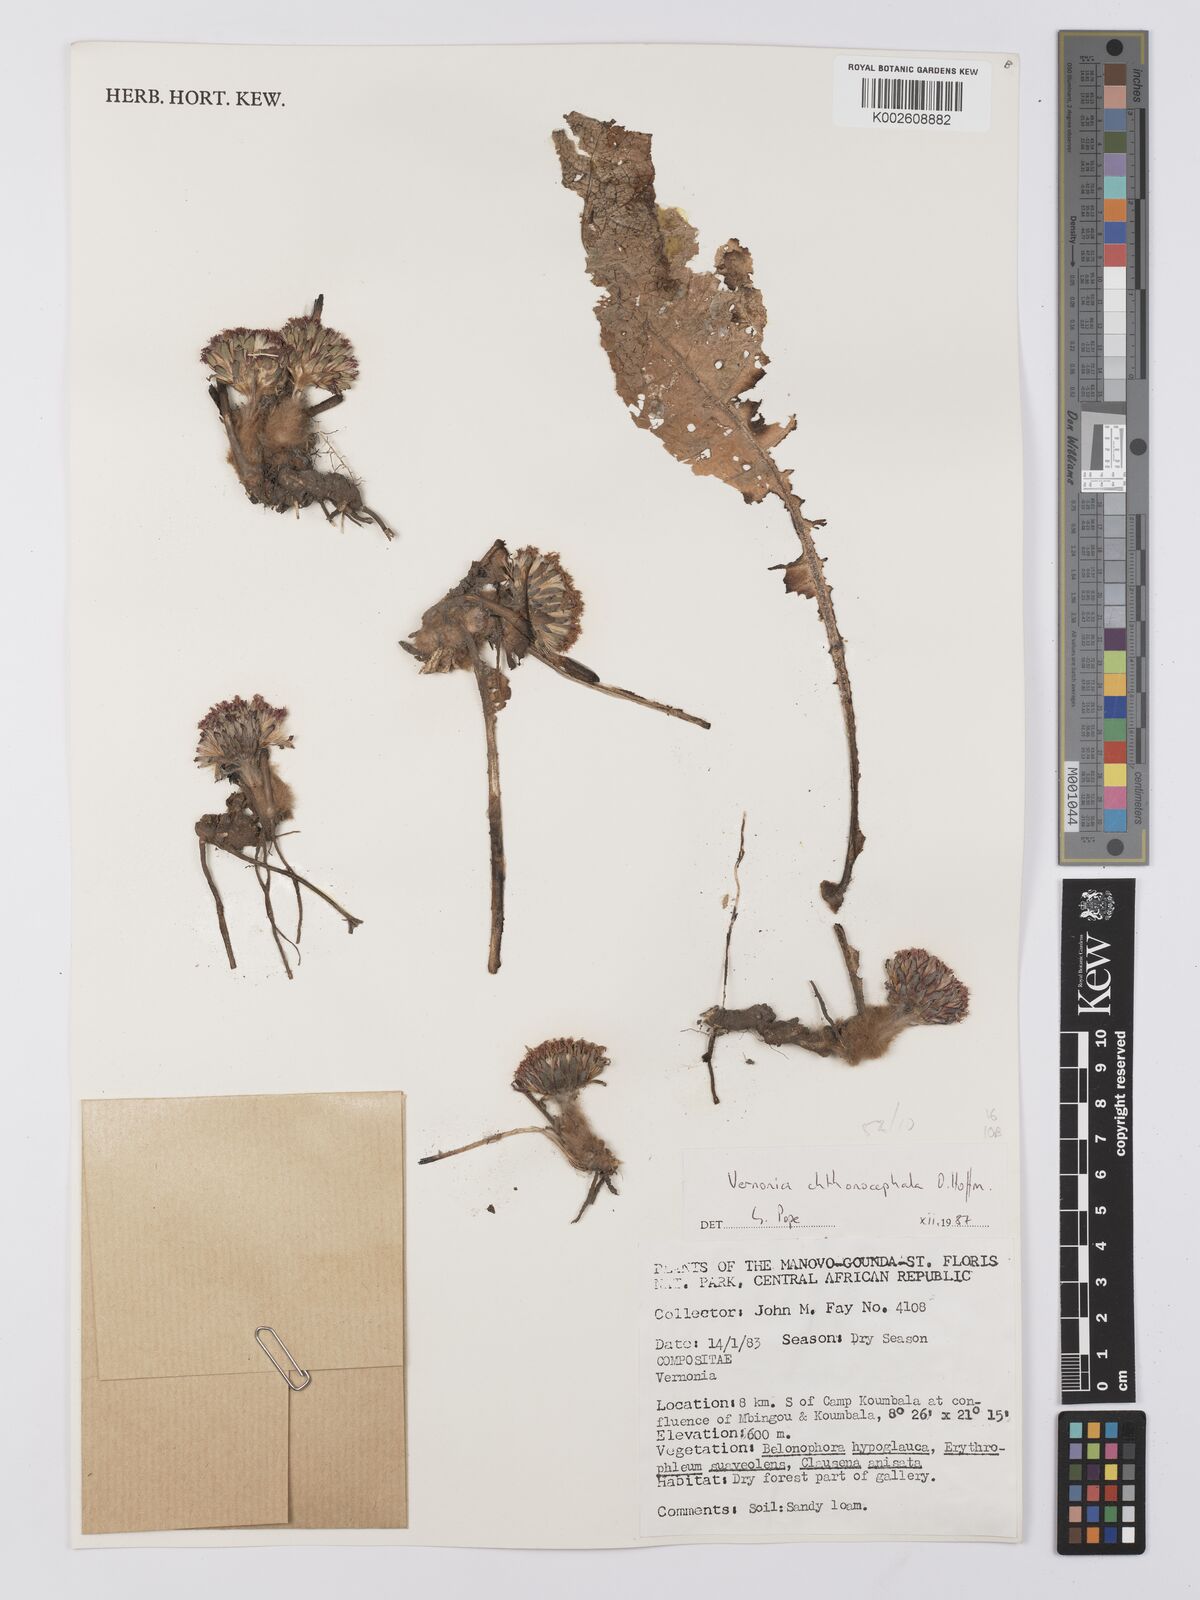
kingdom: Plantae
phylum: Tracheophyta
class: Magnoliopsida
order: Asterales
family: Asteraceae
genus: Vernonella
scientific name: Vernonella chthonocephala
